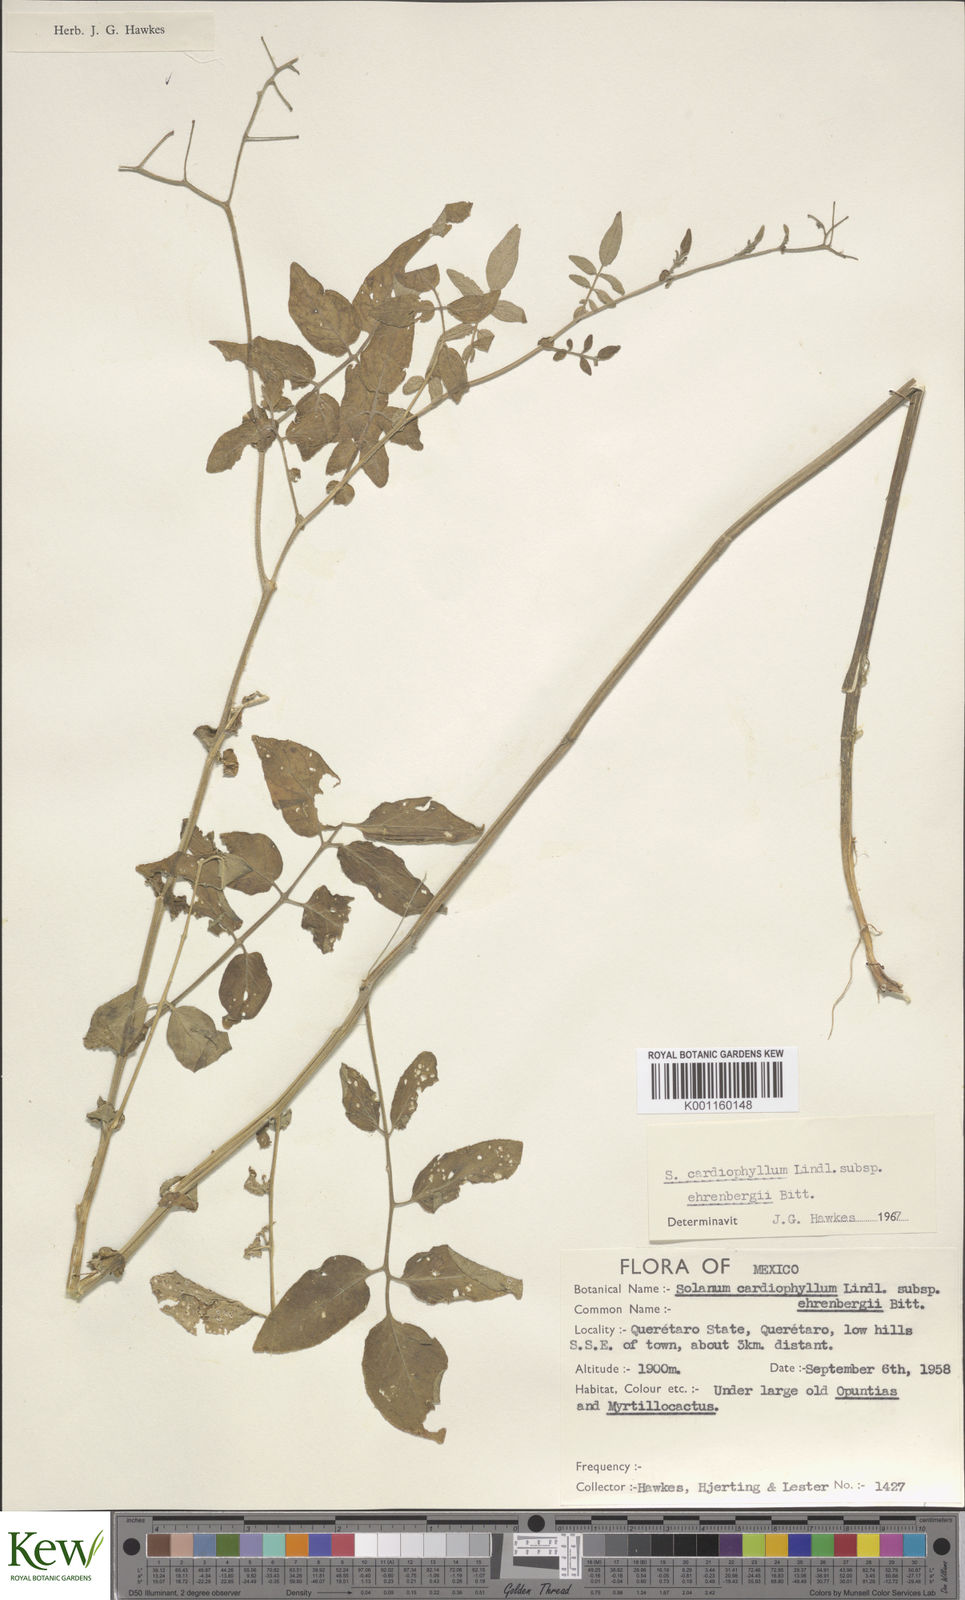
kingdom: Plantae
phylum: Tracheophyta
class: Magnoliopsida
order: Solanales
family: Solanaceae
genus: Solanum
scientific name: Solanum cardiophyllum
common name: Heartleaf horsenettle
